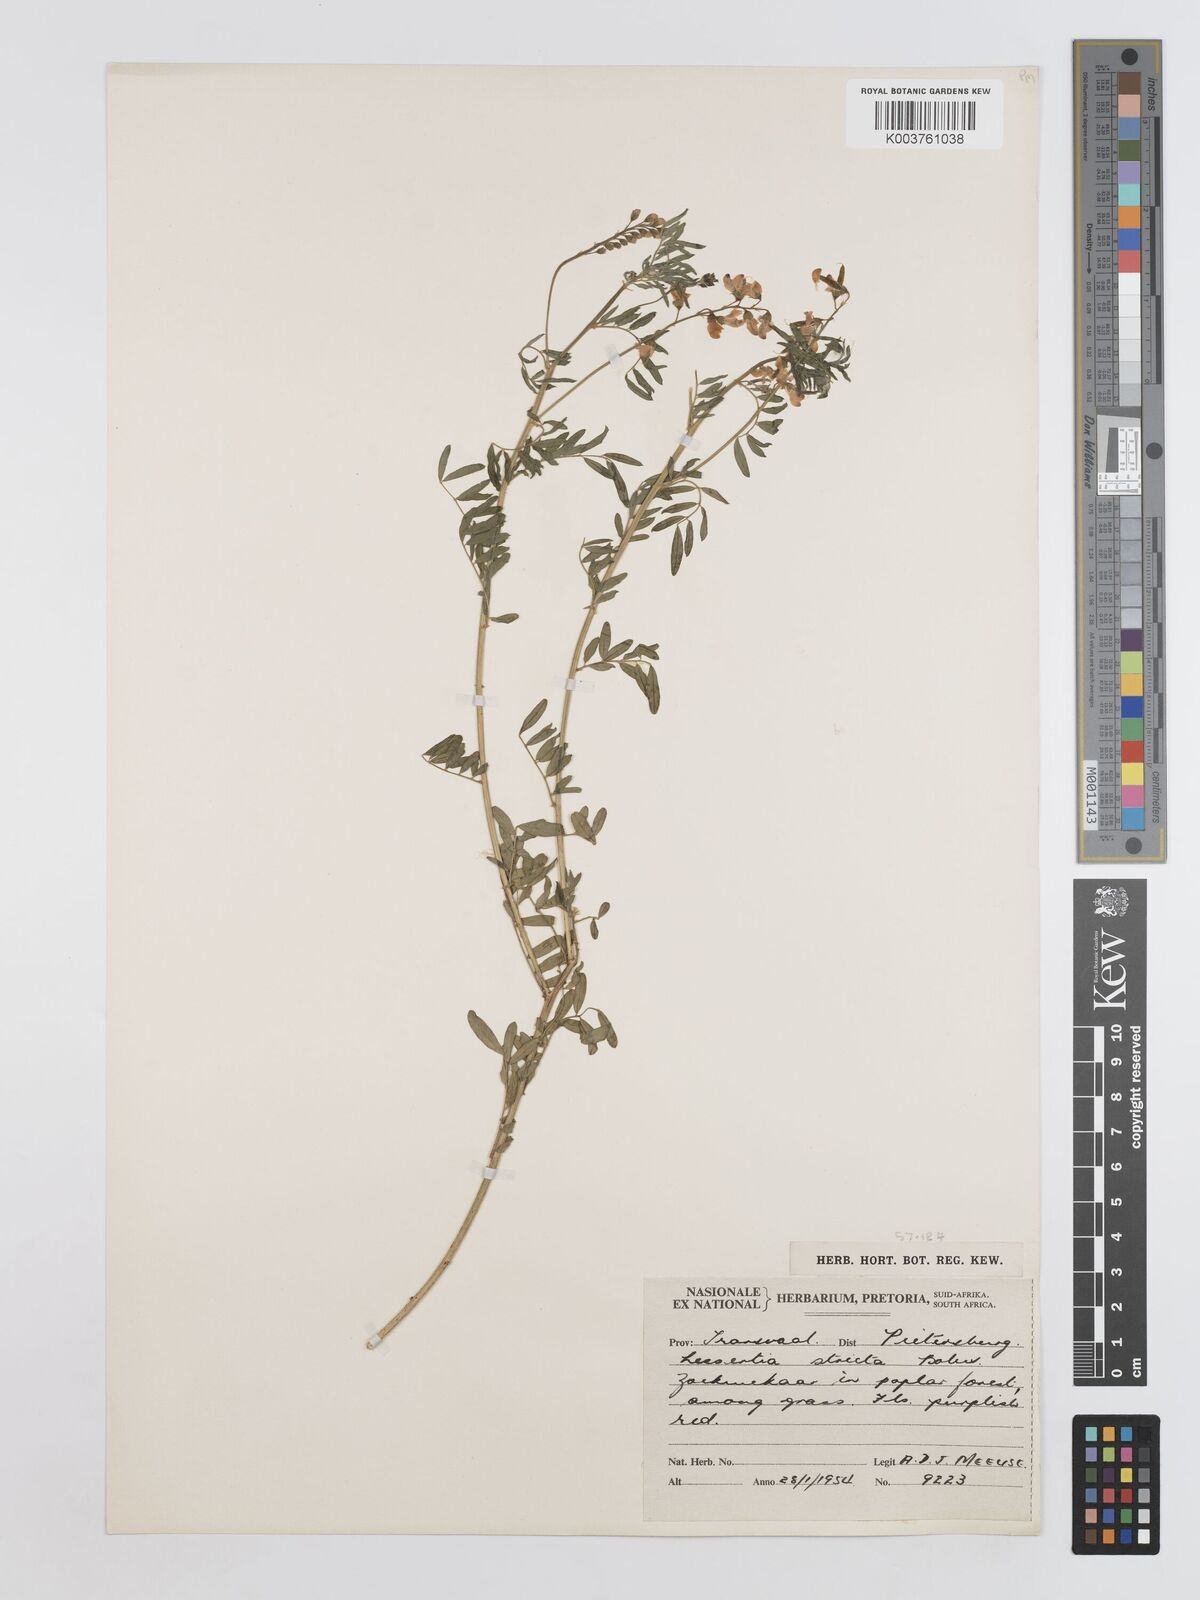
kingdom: Plantae
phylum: Tracheophyta
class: Magnoliopsida
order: Fabales
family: Fabaceae
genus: Lessertia
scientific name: Lessertia stricta
